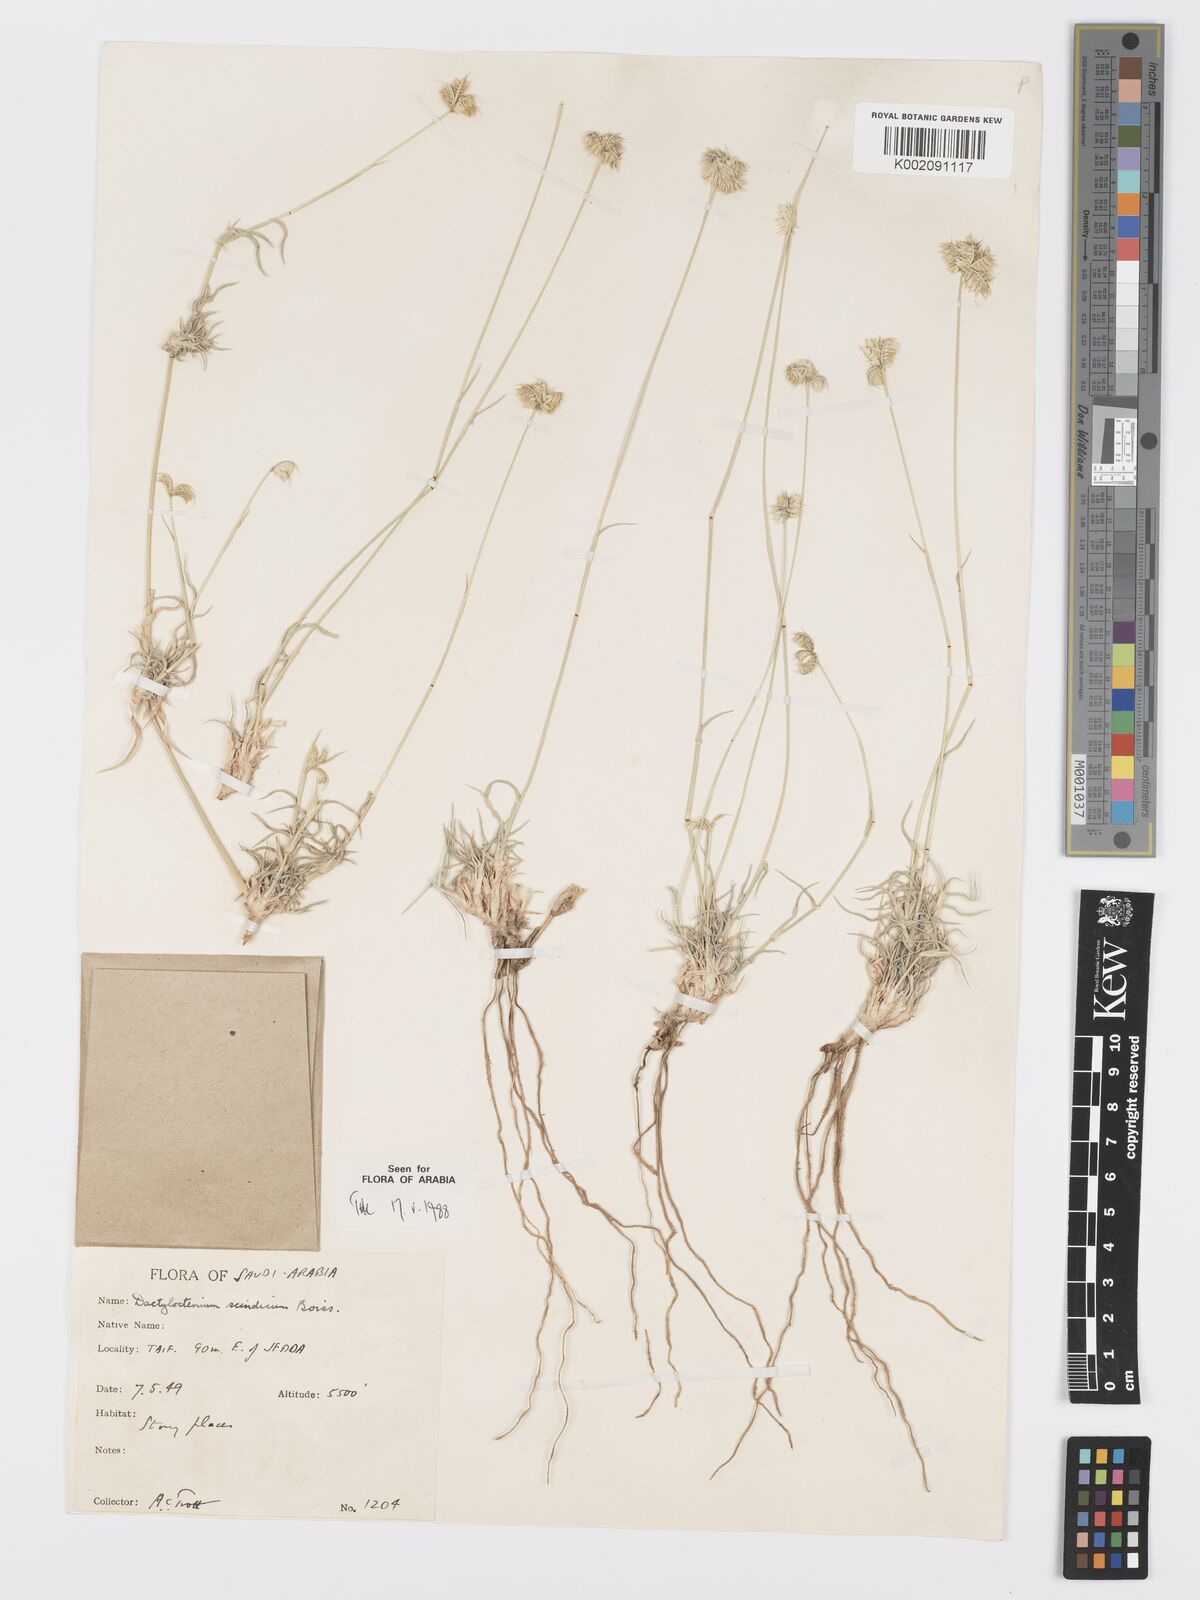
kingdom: Plantae
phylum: Tracheophyta
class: Liliopsida
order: Poales
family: Poaceae
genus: Dactyloctenium
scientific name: Dactyloctenium scindicum
